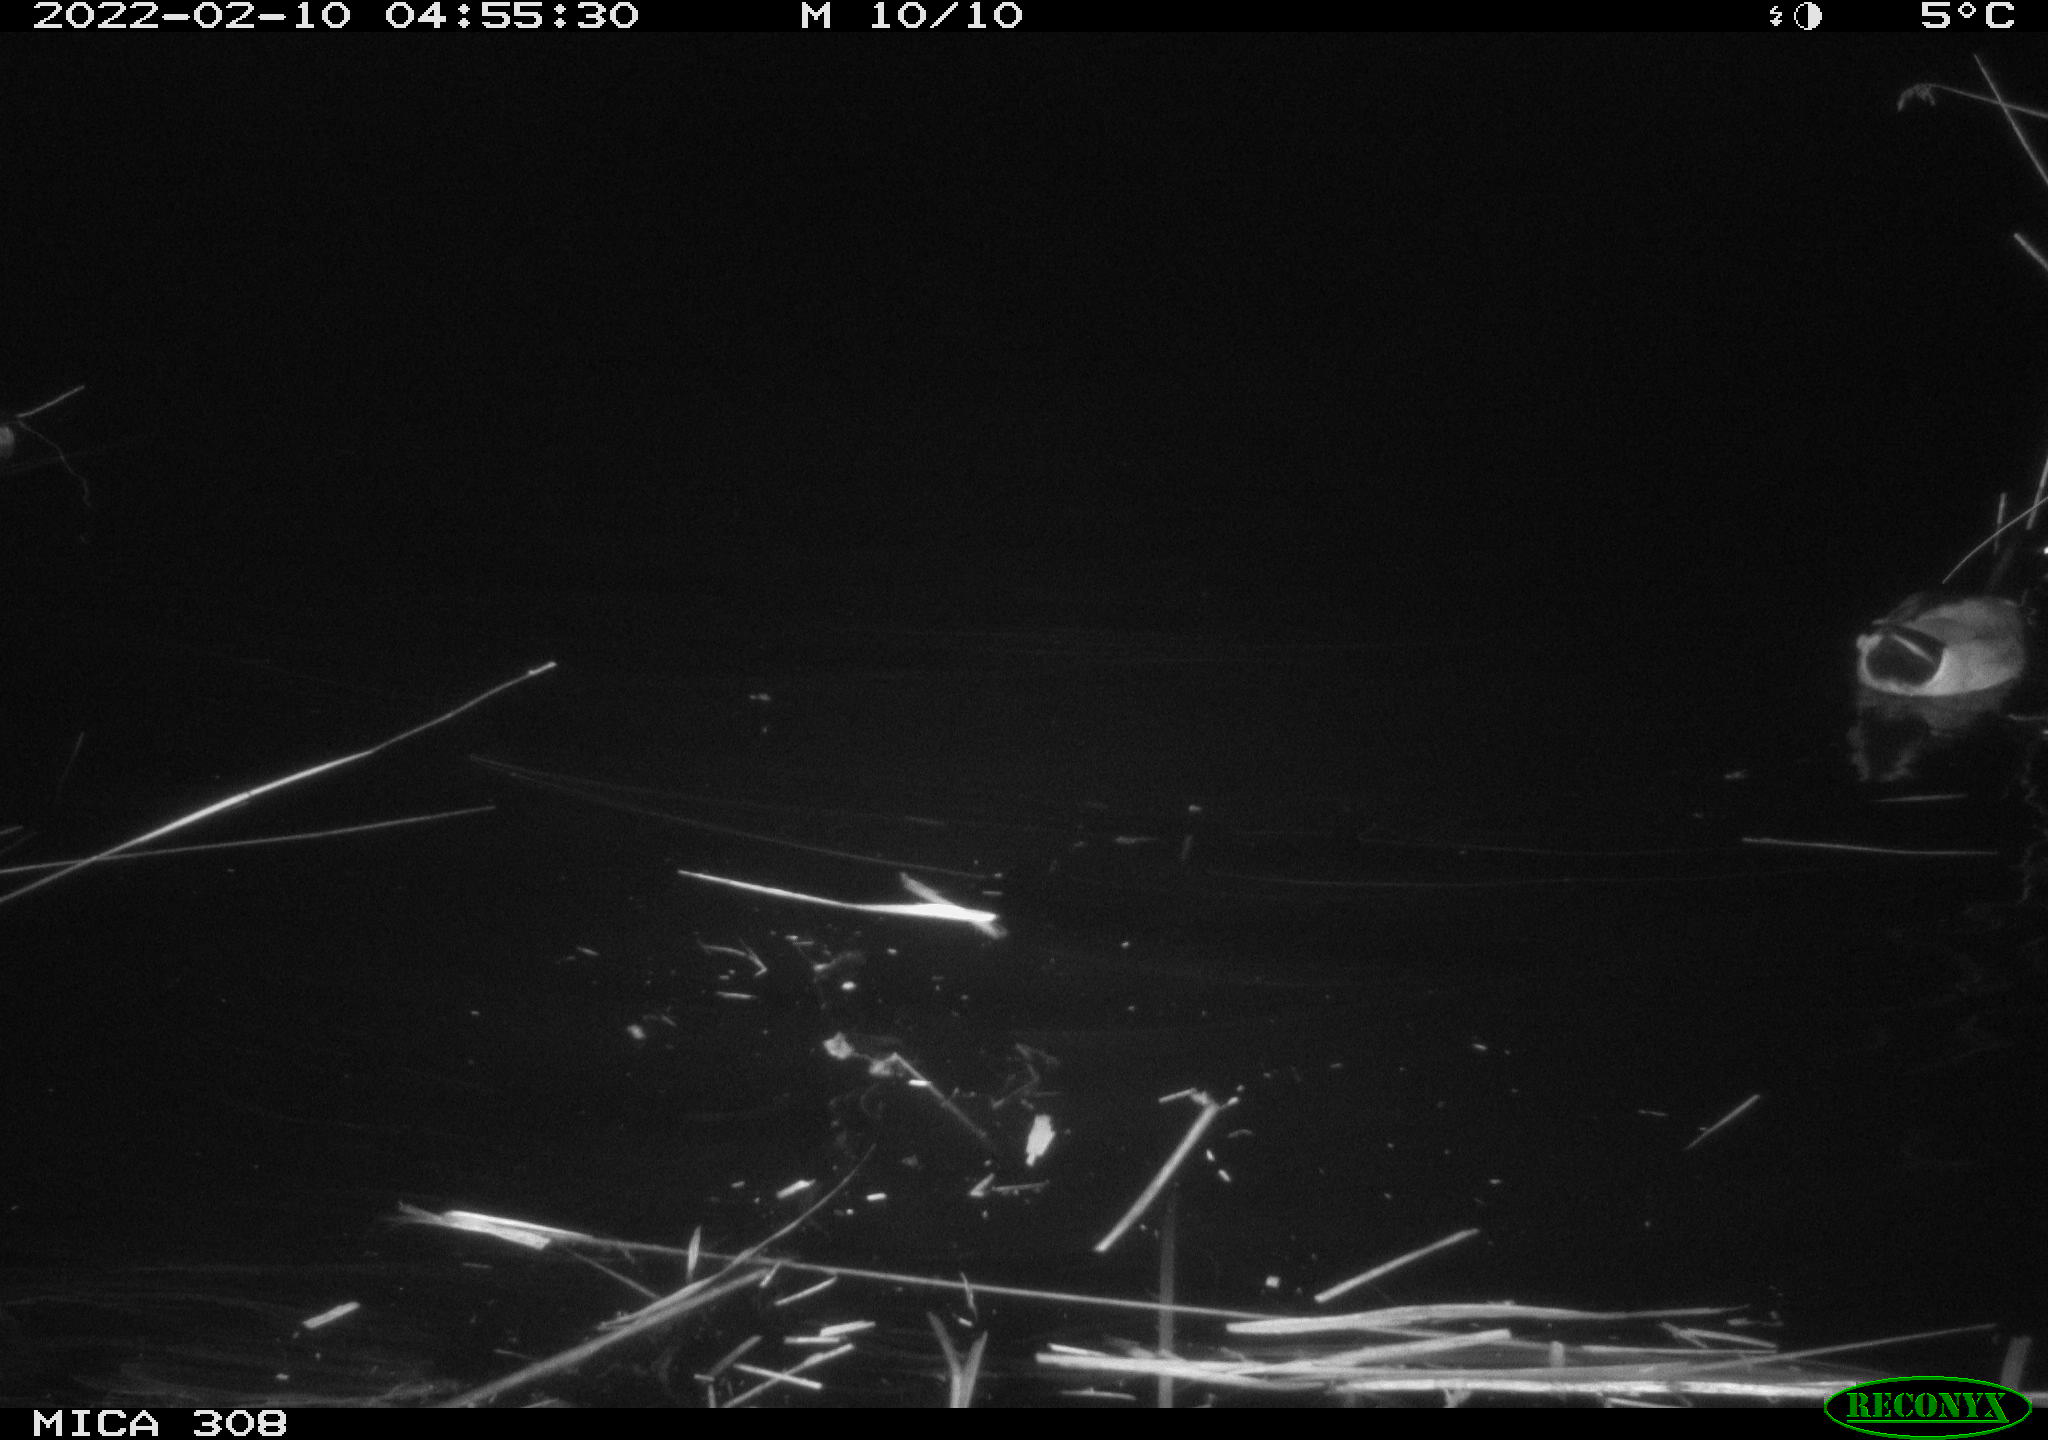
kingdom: Animalia
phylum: Chordata
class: Aves
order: Anseriformes
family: Anatidae
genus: Anas
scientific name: Anas platyrhynchos
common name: Mallard
